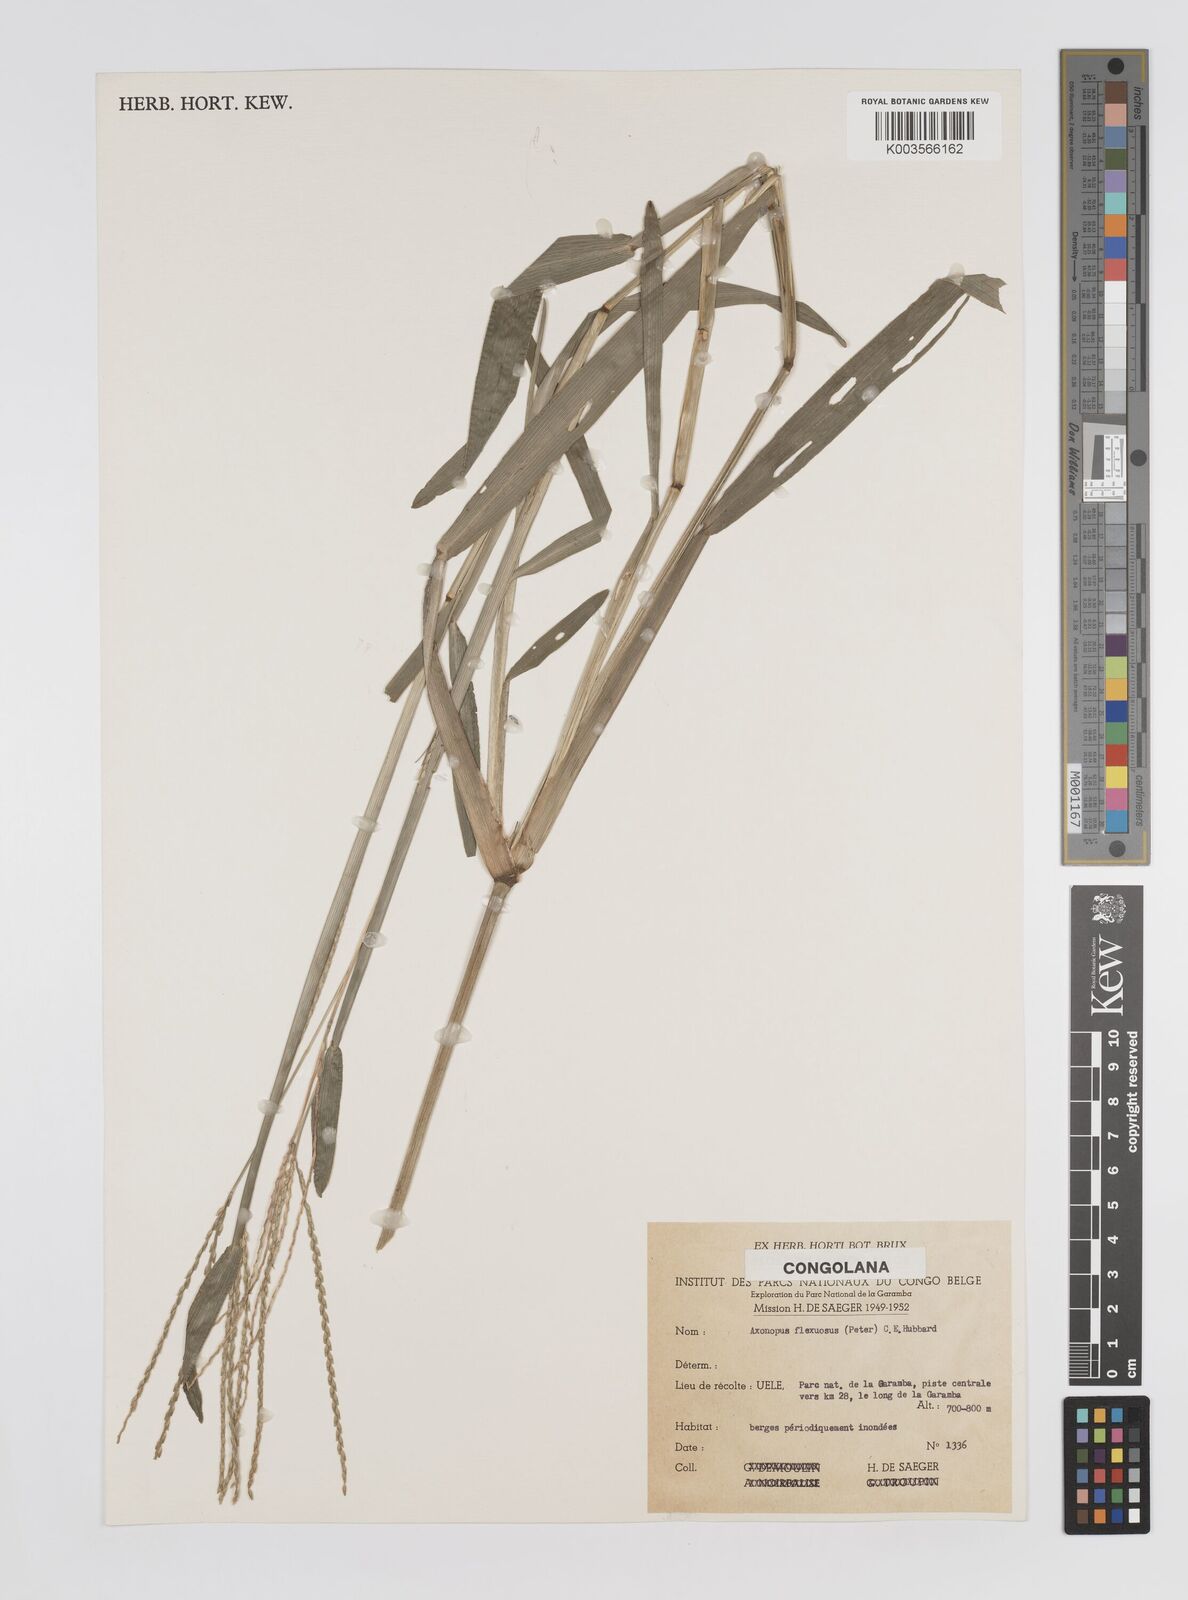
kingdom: Plantae
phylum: Tracheophyta
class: Liliopsida
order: Poales
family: Poaceae
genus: Axonopus
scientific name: Axonopus flexuosus
